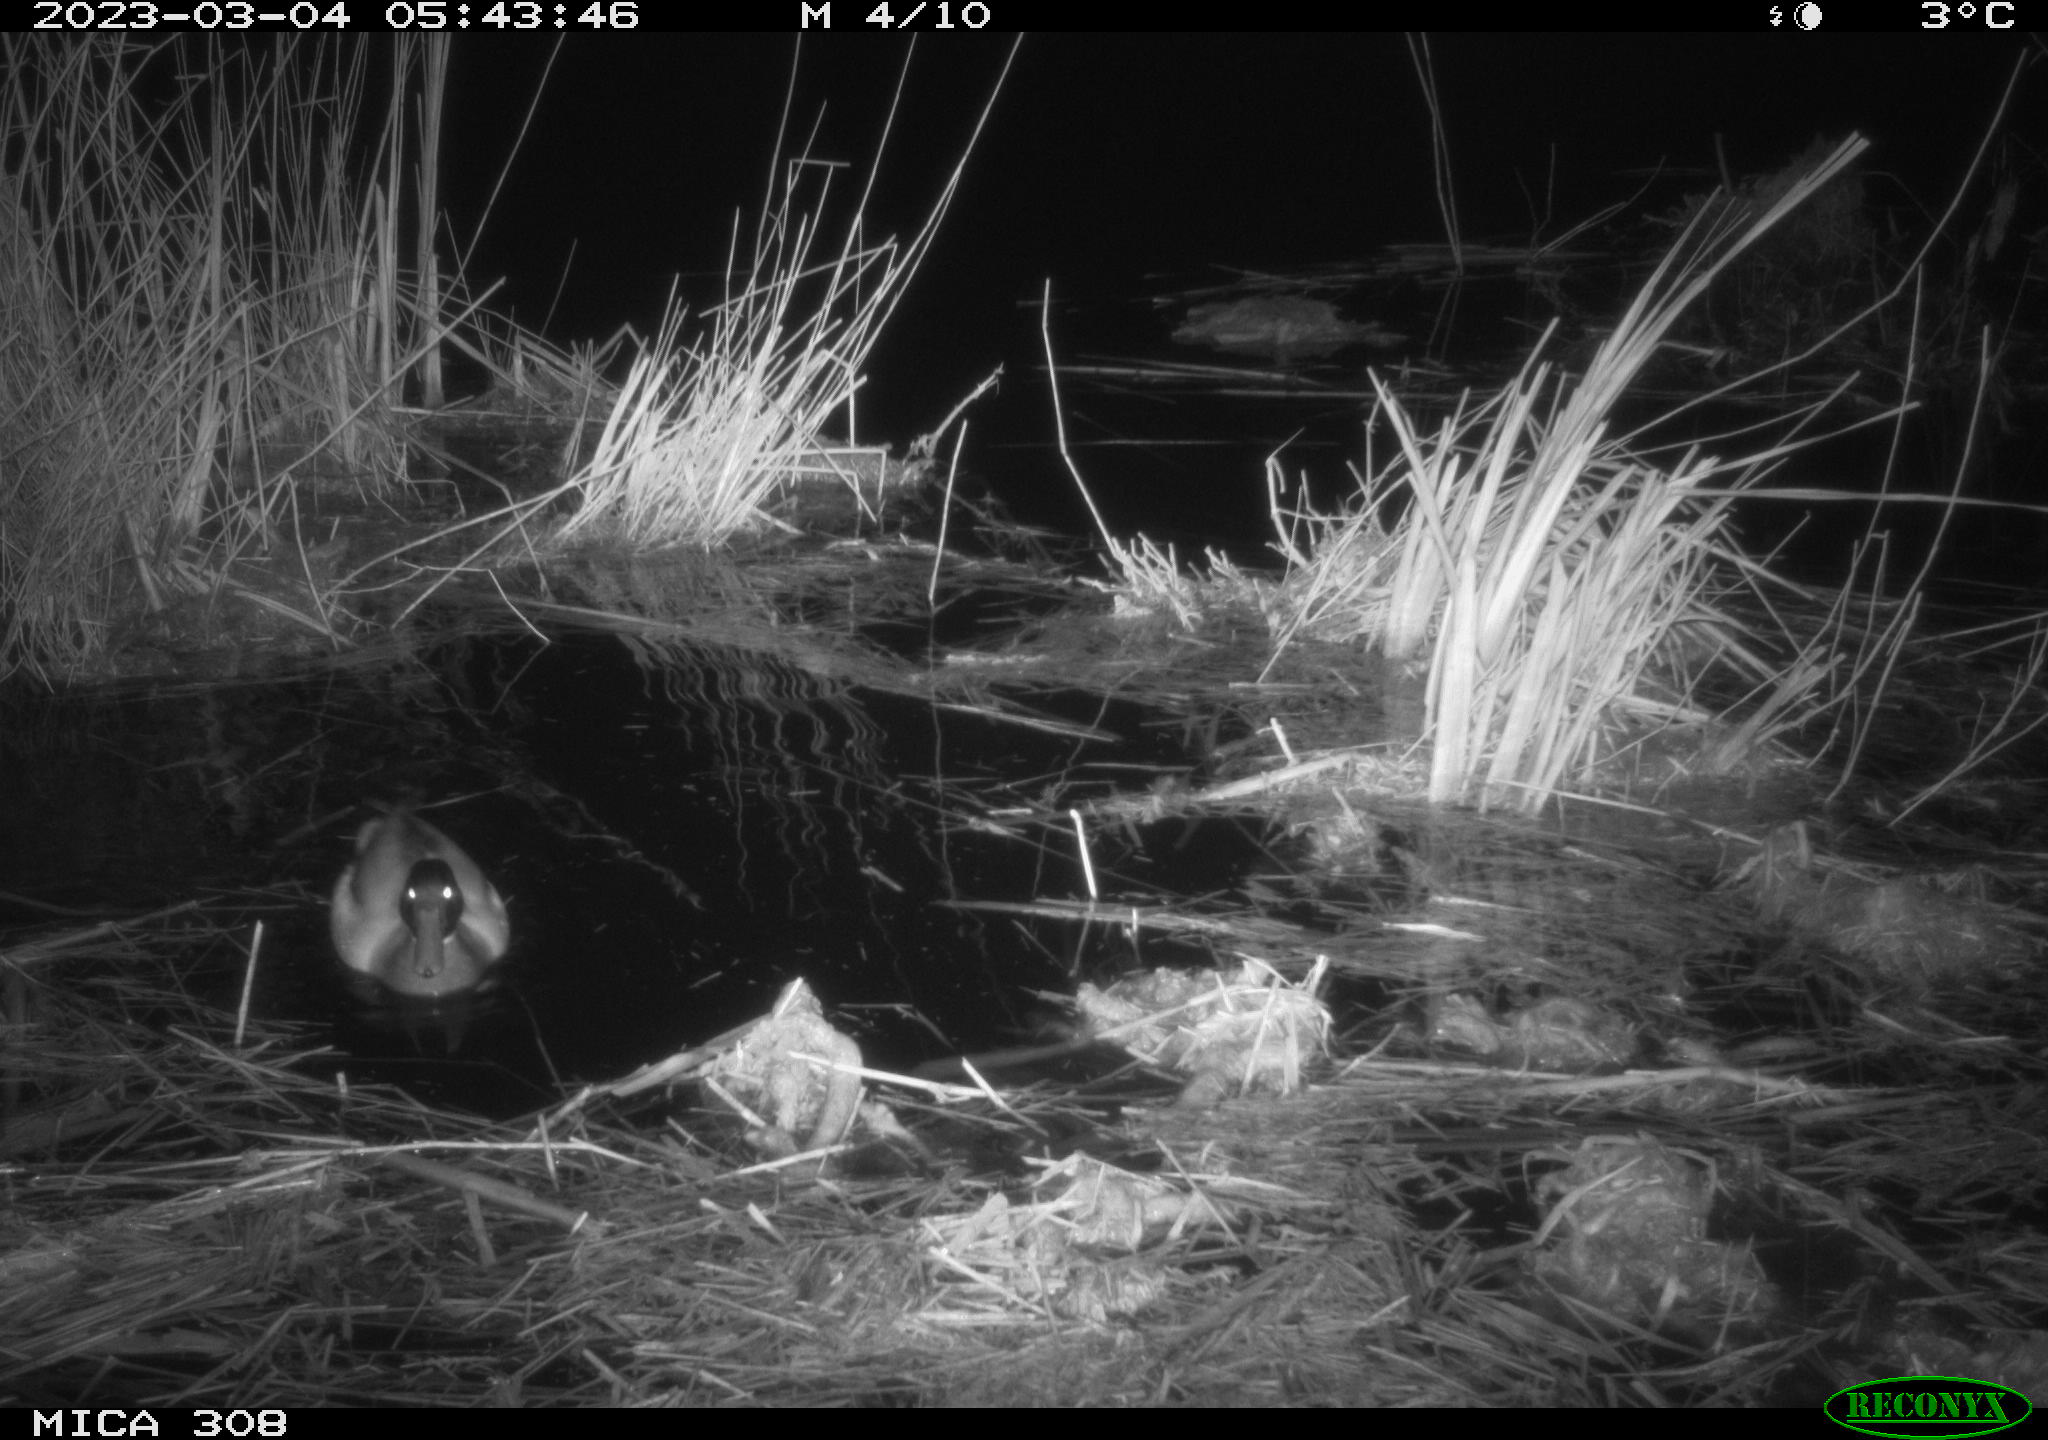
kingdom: Animalia
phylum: Chordata
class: Aves
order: Anseriformes
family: Anatidae
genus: Anas
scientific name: Anas
